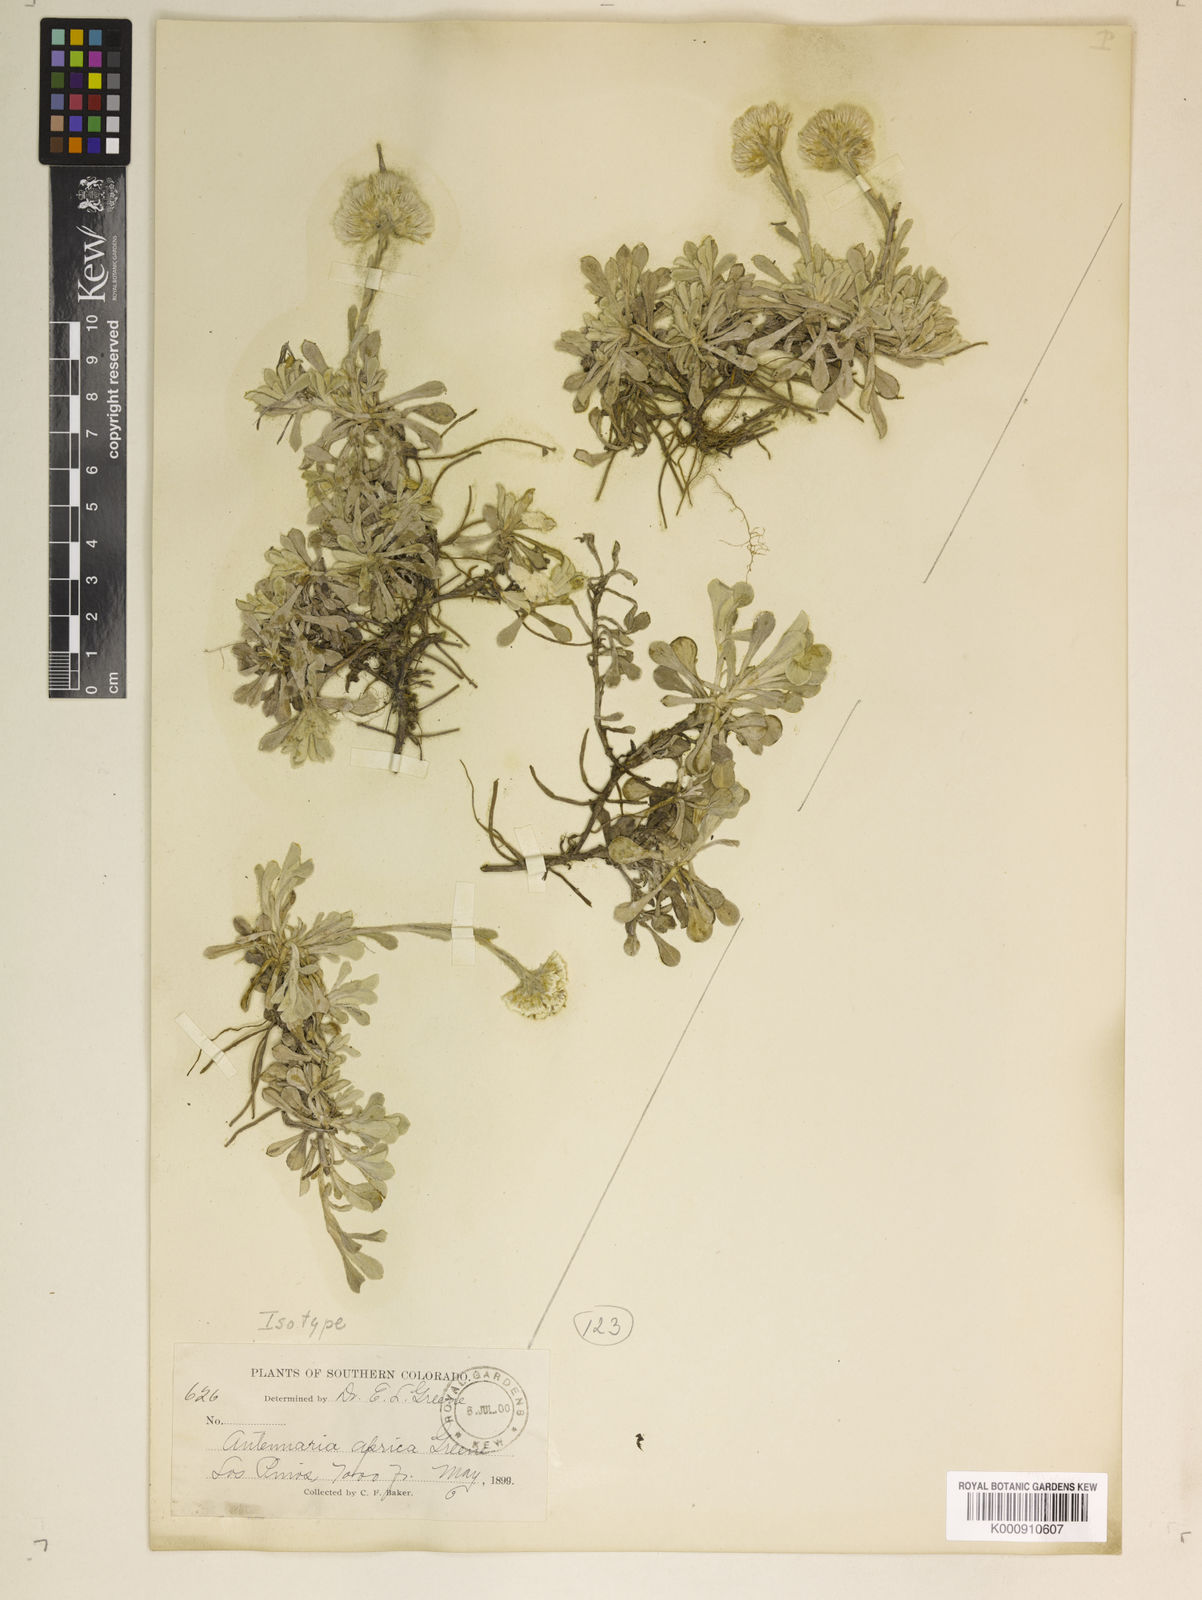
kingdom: Plantae
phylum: Tracheophyta
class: Magnoliopsida
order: Asterales
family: Asteraceae
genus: Antennaria
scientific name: Antennaria parvifolia
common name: Nuttall's pussytoes
